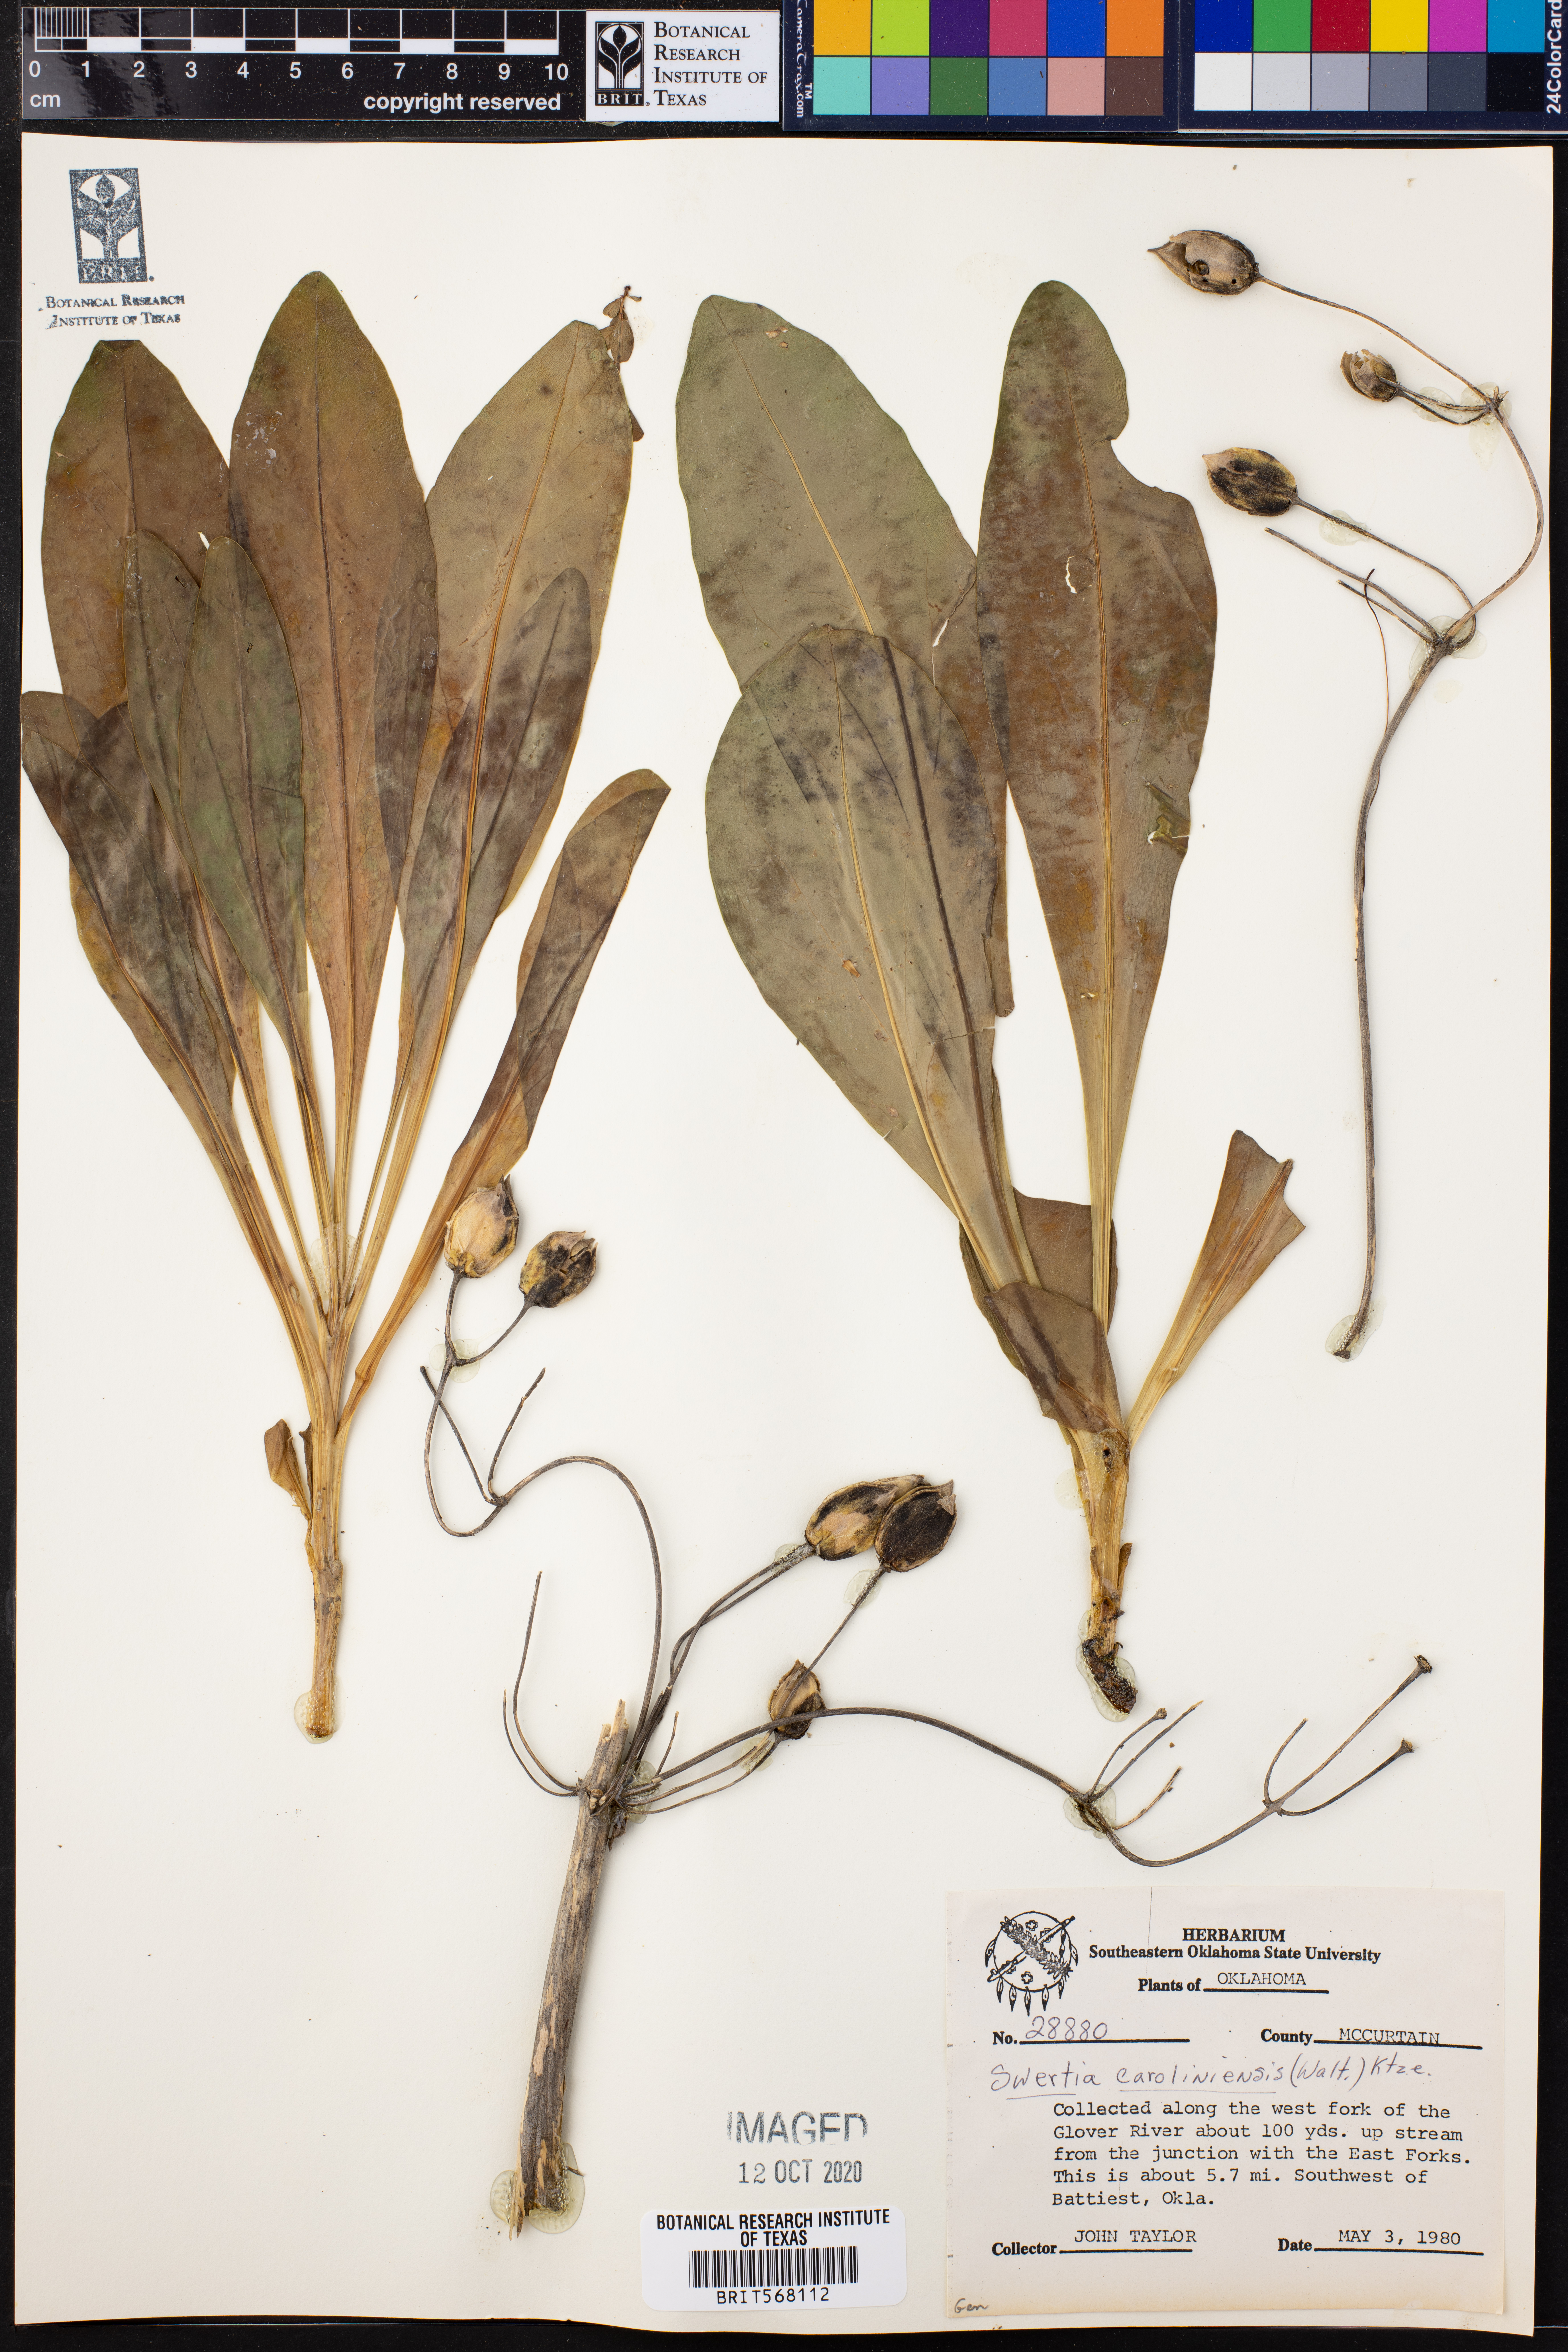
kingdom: Plantae
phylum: Tracheophyta
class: Magnoliopsida
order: Gentianales
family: Gentianaceae
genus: Frasera
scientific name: Frasera carolinensis
